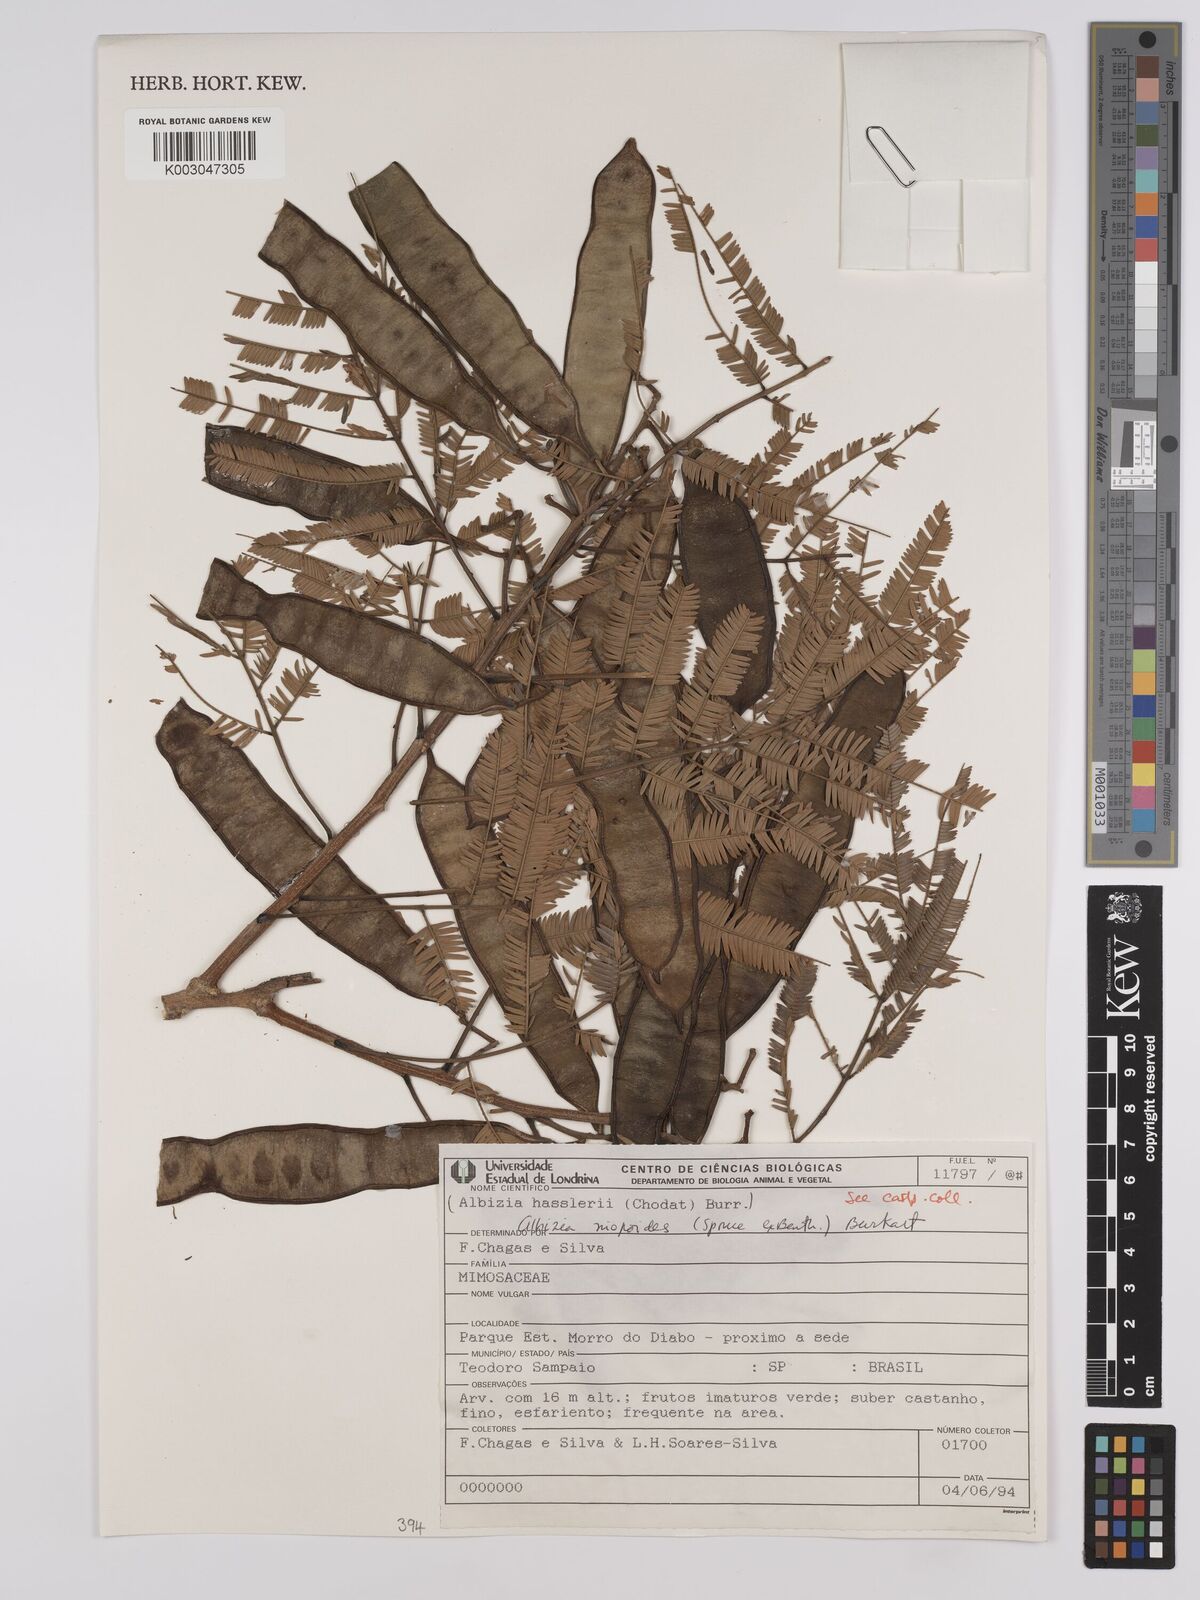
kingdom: Plantae
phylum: Tracheophyta
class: Magnoliopsida
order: Fabales
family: Fabaceae
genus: Albizia
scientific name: Albizia niopoides
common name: Silk tree
